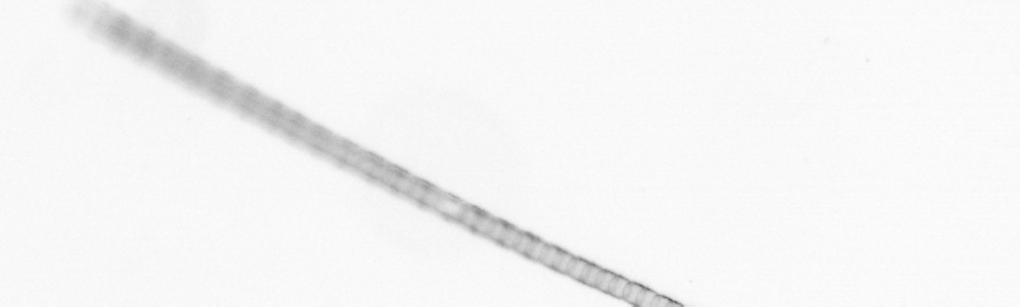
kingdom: Chromista
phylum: Ochrophyta
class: Bacillariophyceae
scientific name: Bacillariophyceae
